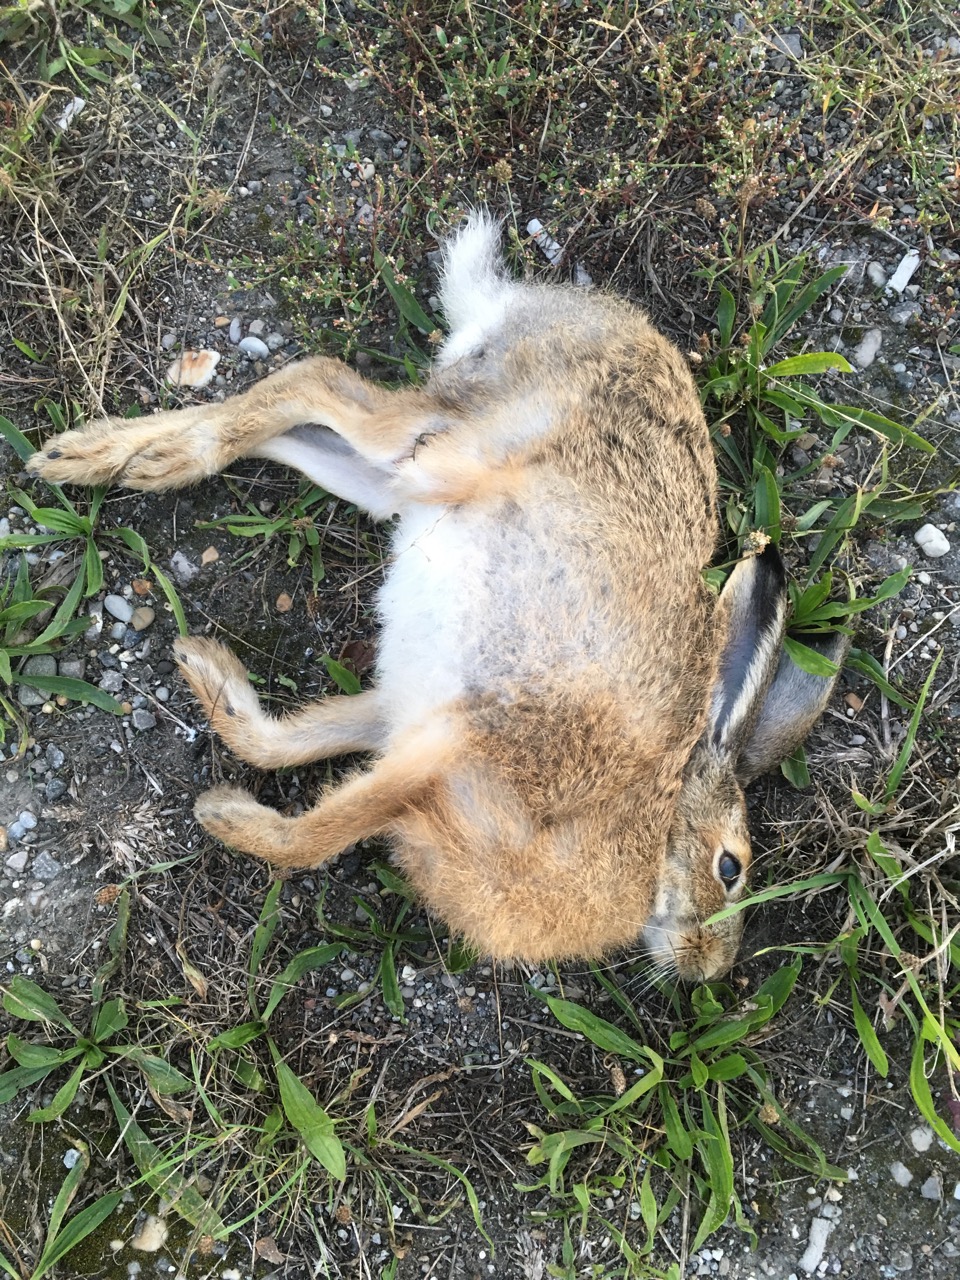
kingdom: Animalia
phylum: Chordata
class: Mammalia
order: Lagomorpha
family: Leporidae
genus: Lepus
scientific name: Lepus europaeus
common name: European hare
